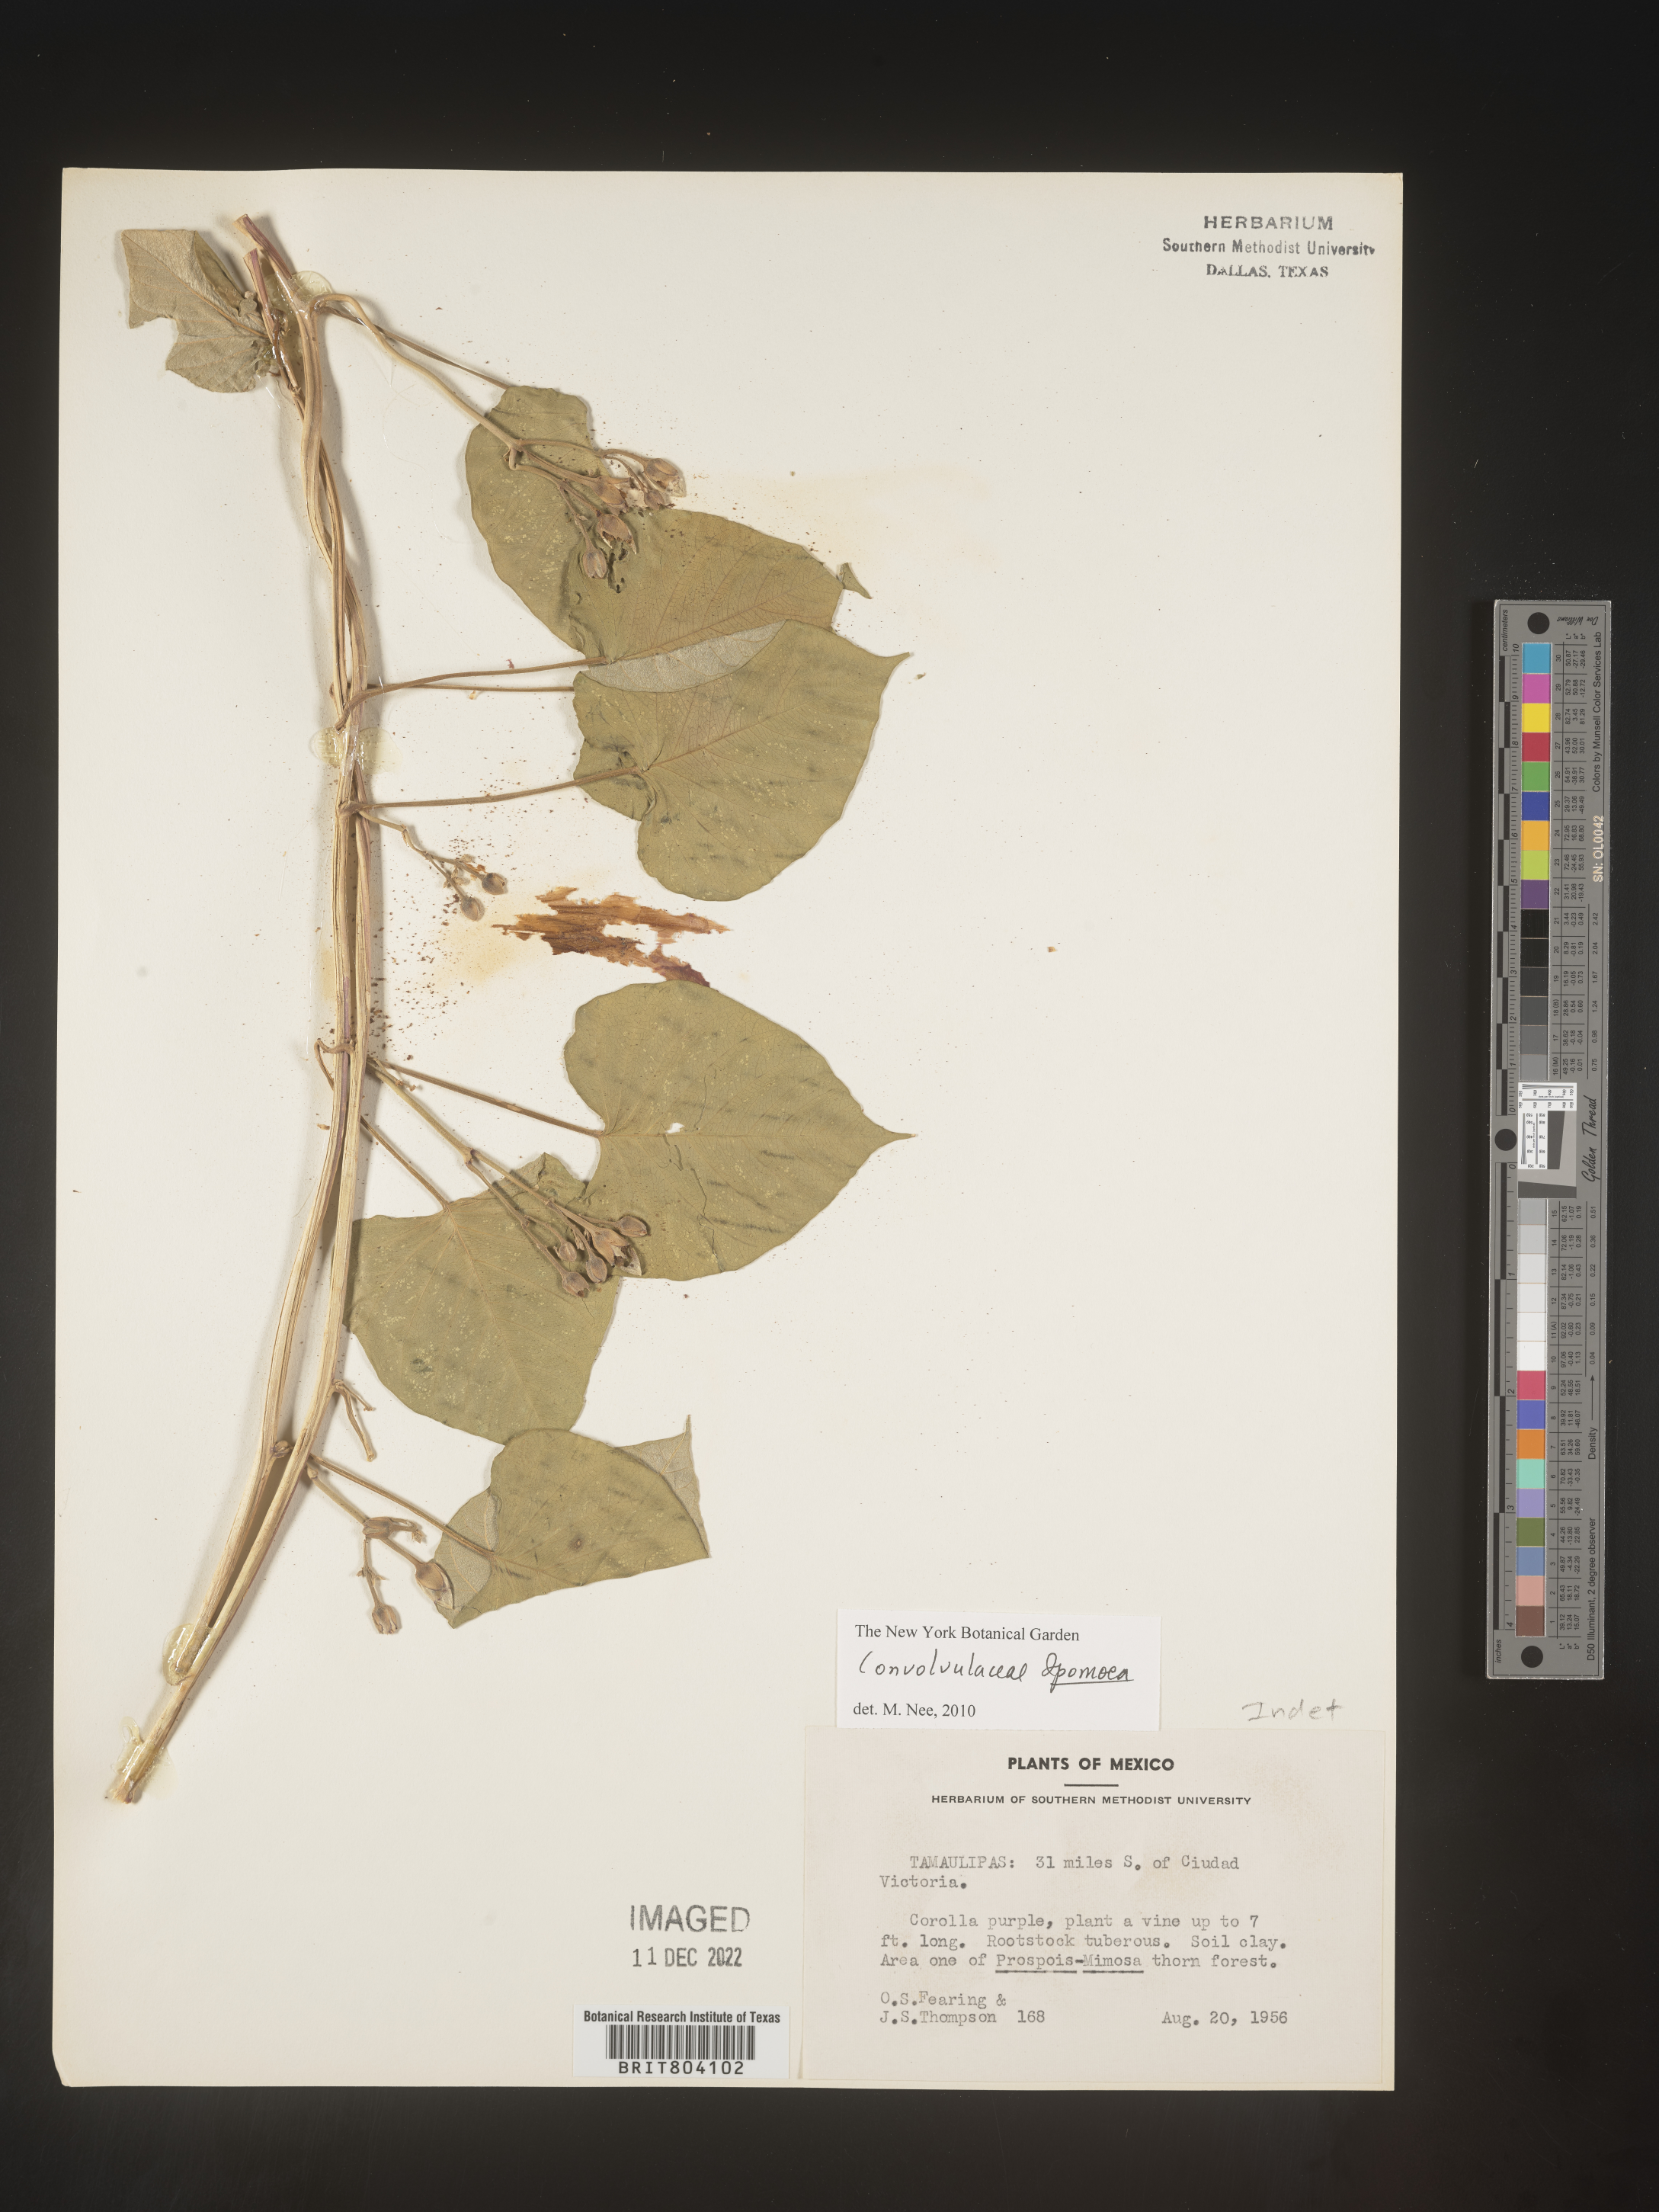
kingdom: Plantae
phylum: Tracheophyta
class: Magnoliopsida
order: Solanales
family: Convolvulaceae
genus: Convolvulus
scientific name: Convolvulus
